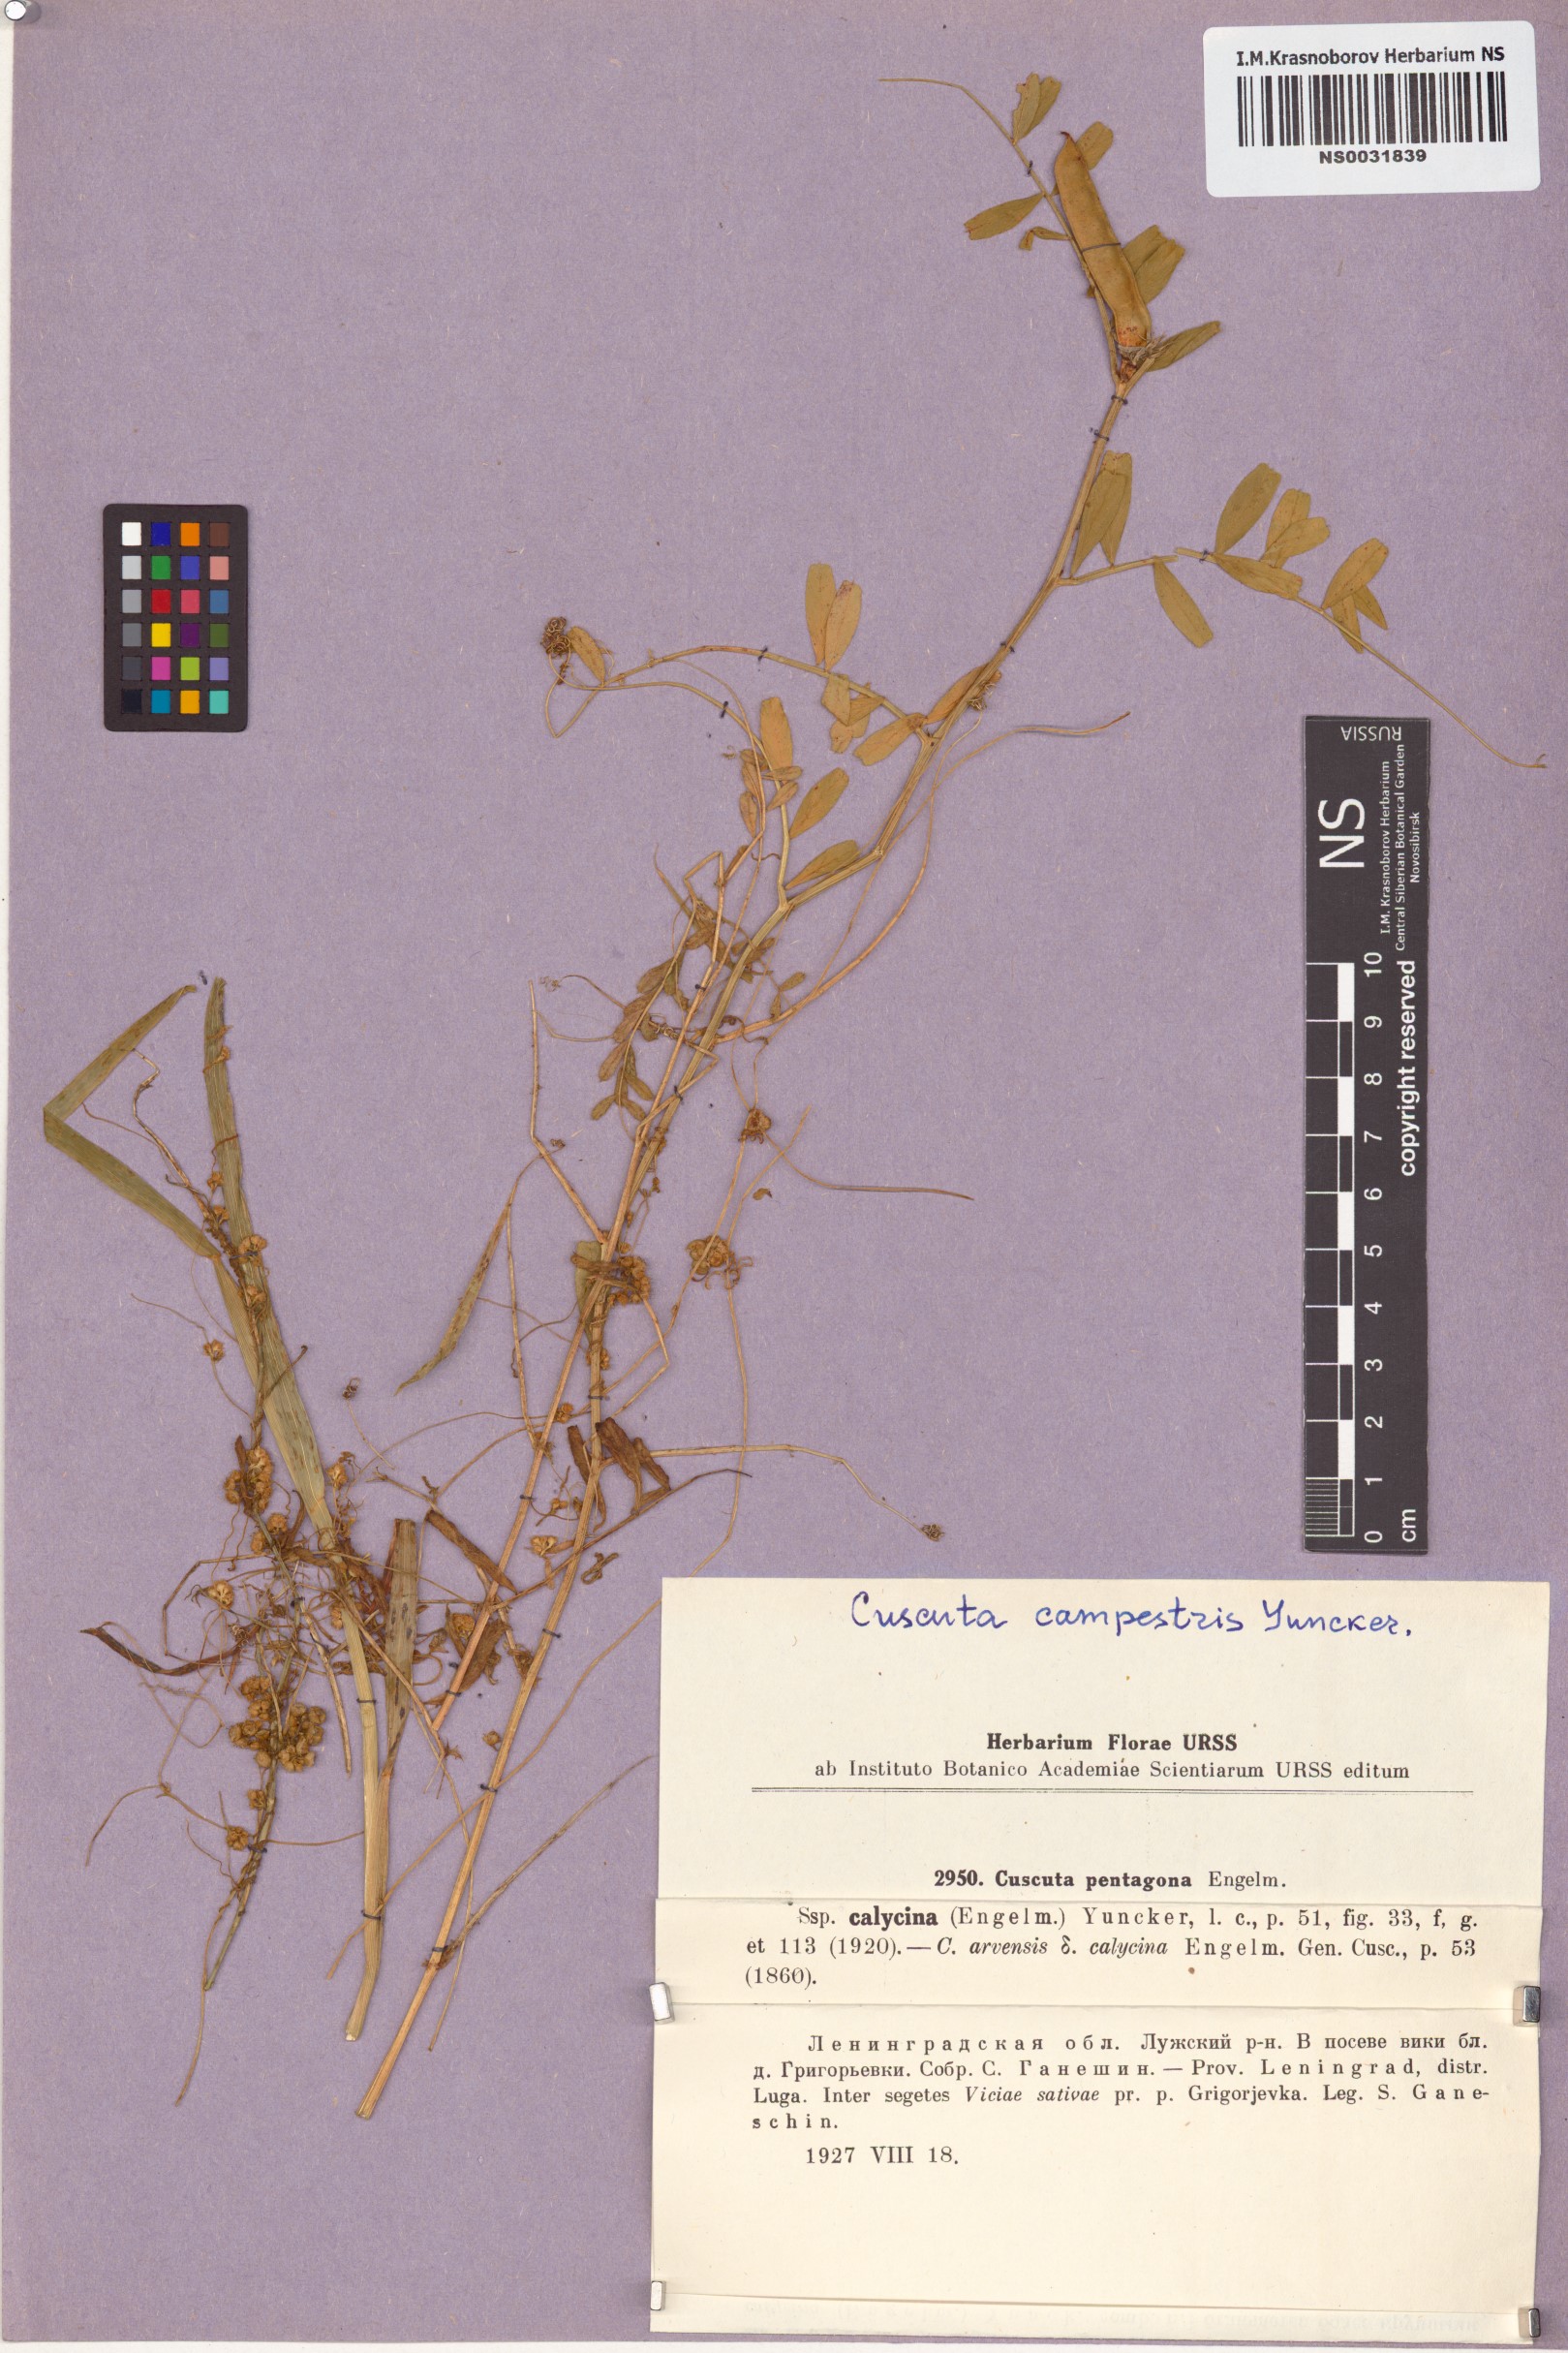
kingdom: Plantae
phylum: Tracheophyta
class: Magnoliopsida
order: Solanales
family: Convolvulaceae
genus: Cuscuta
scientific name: Cuscuta campestris
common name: Yellow dodder
